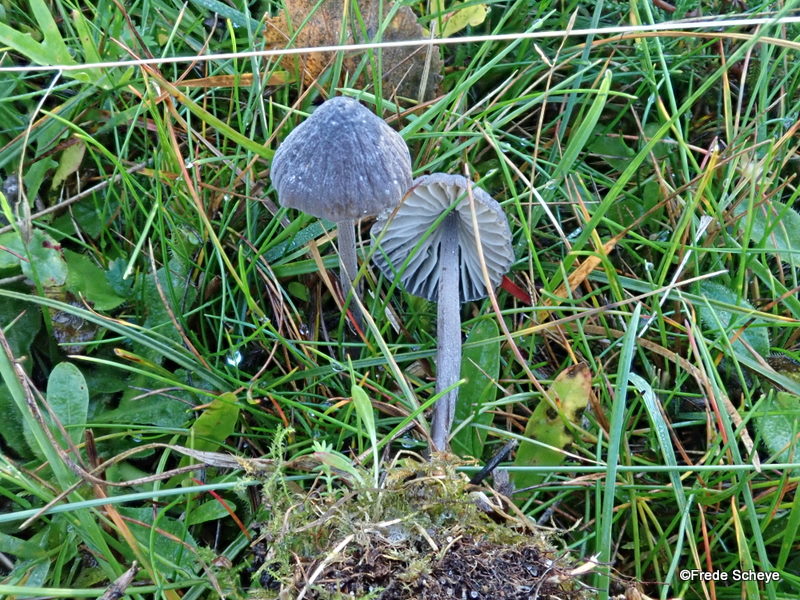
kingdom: Fungi
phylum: Basidiomycota
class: Agaricomycetes
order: Agaricales
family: Mycenaceae
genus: Mycena
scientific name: Mycena galopus
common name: hvidmælket huesvamp
